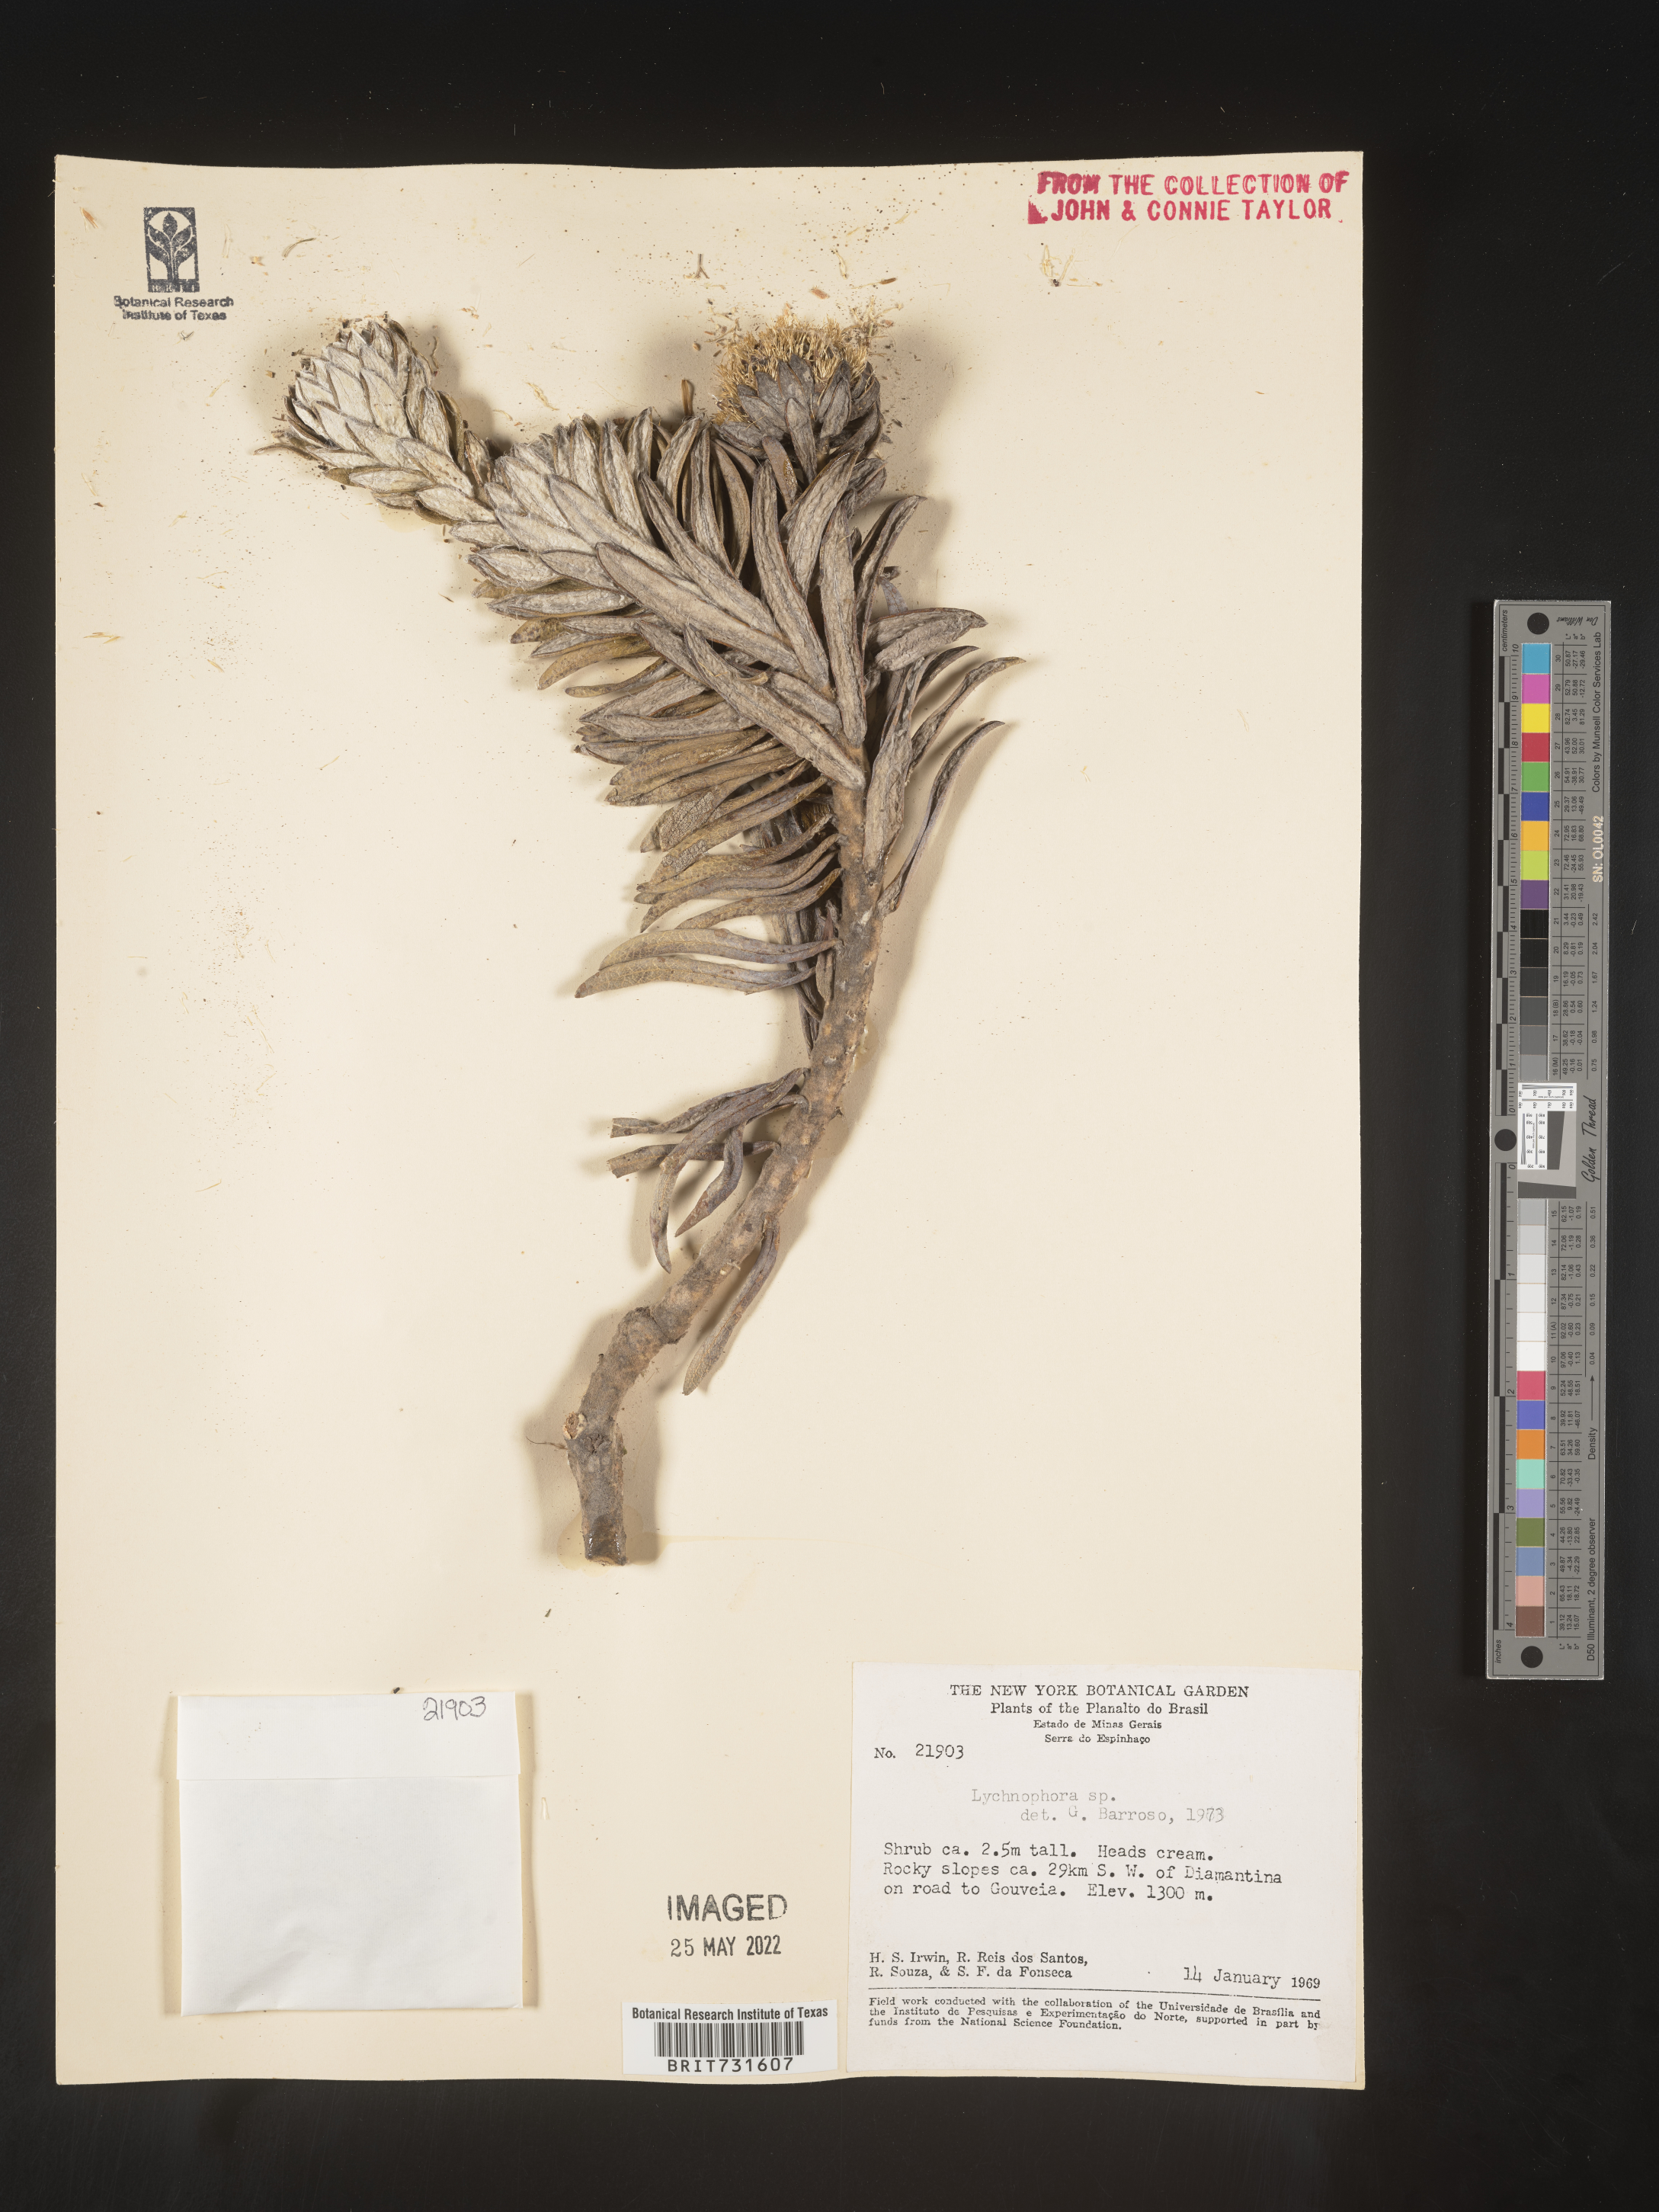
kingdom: Plantae
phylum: Tracheophyta
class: Magnoliopsida
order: Asterales
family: Asteraceae
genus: Lychnophora
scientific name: Lychnophora
